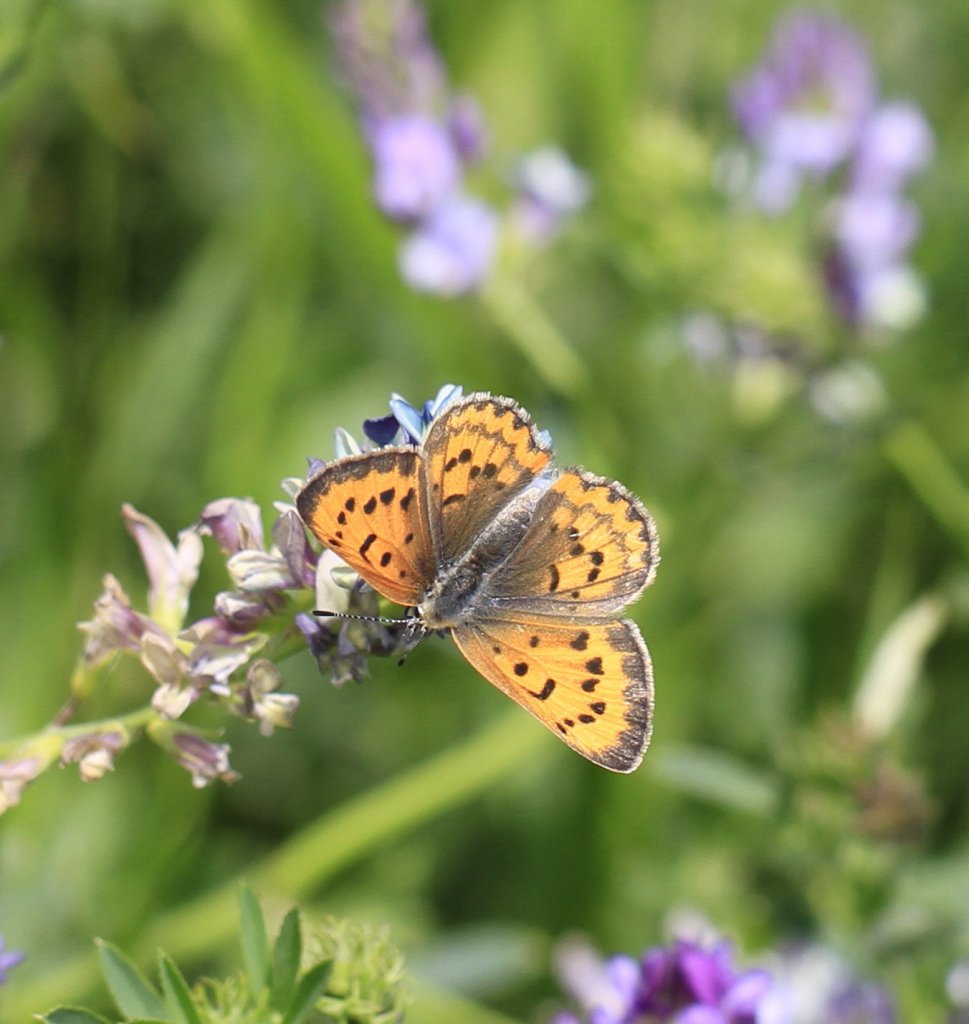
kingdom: Animalia
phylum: Arthropoda
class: Insecta
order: Lepidoptera
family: Sesiidae
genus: Sesia
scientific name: Sesia Lycaena helloides
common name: Purplish Copper
